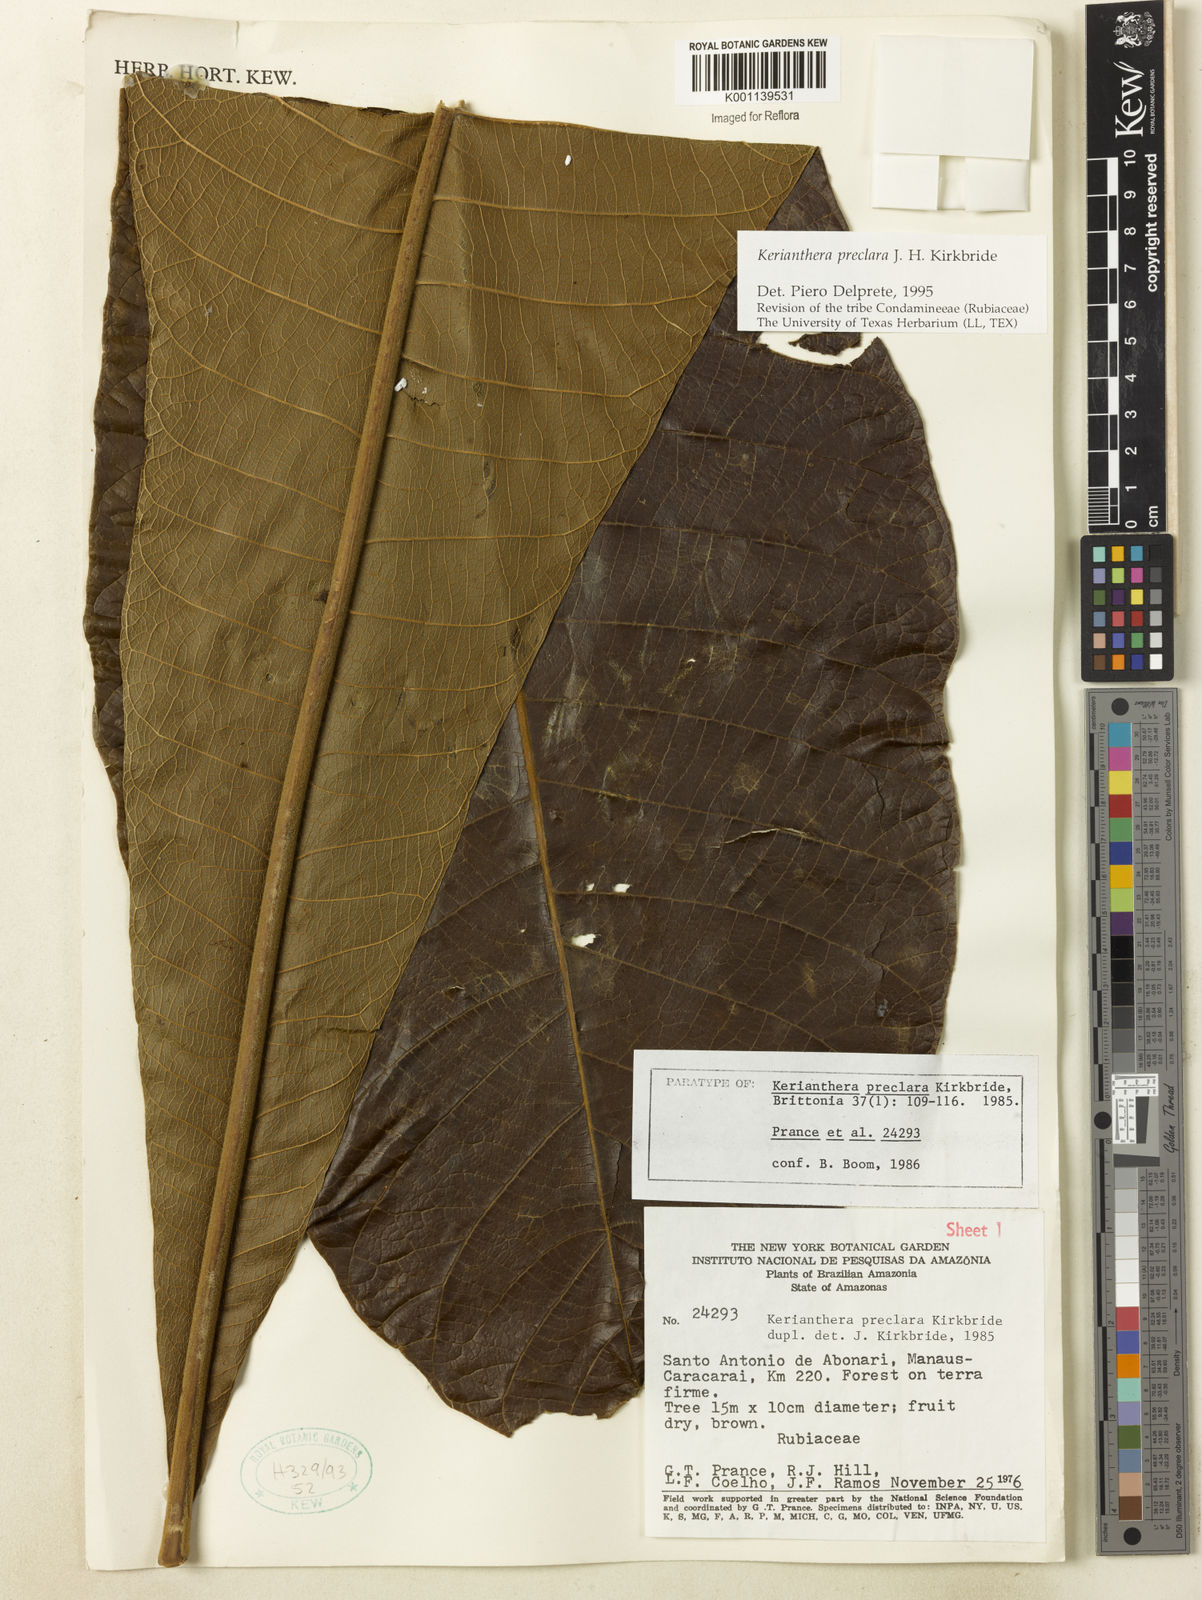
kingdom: Plantae
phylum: Tracheophyta
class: Magnoliopsida
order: Gentianales
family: Rubiaceae
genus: Kerianthera
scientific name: Kerianthera preclara
